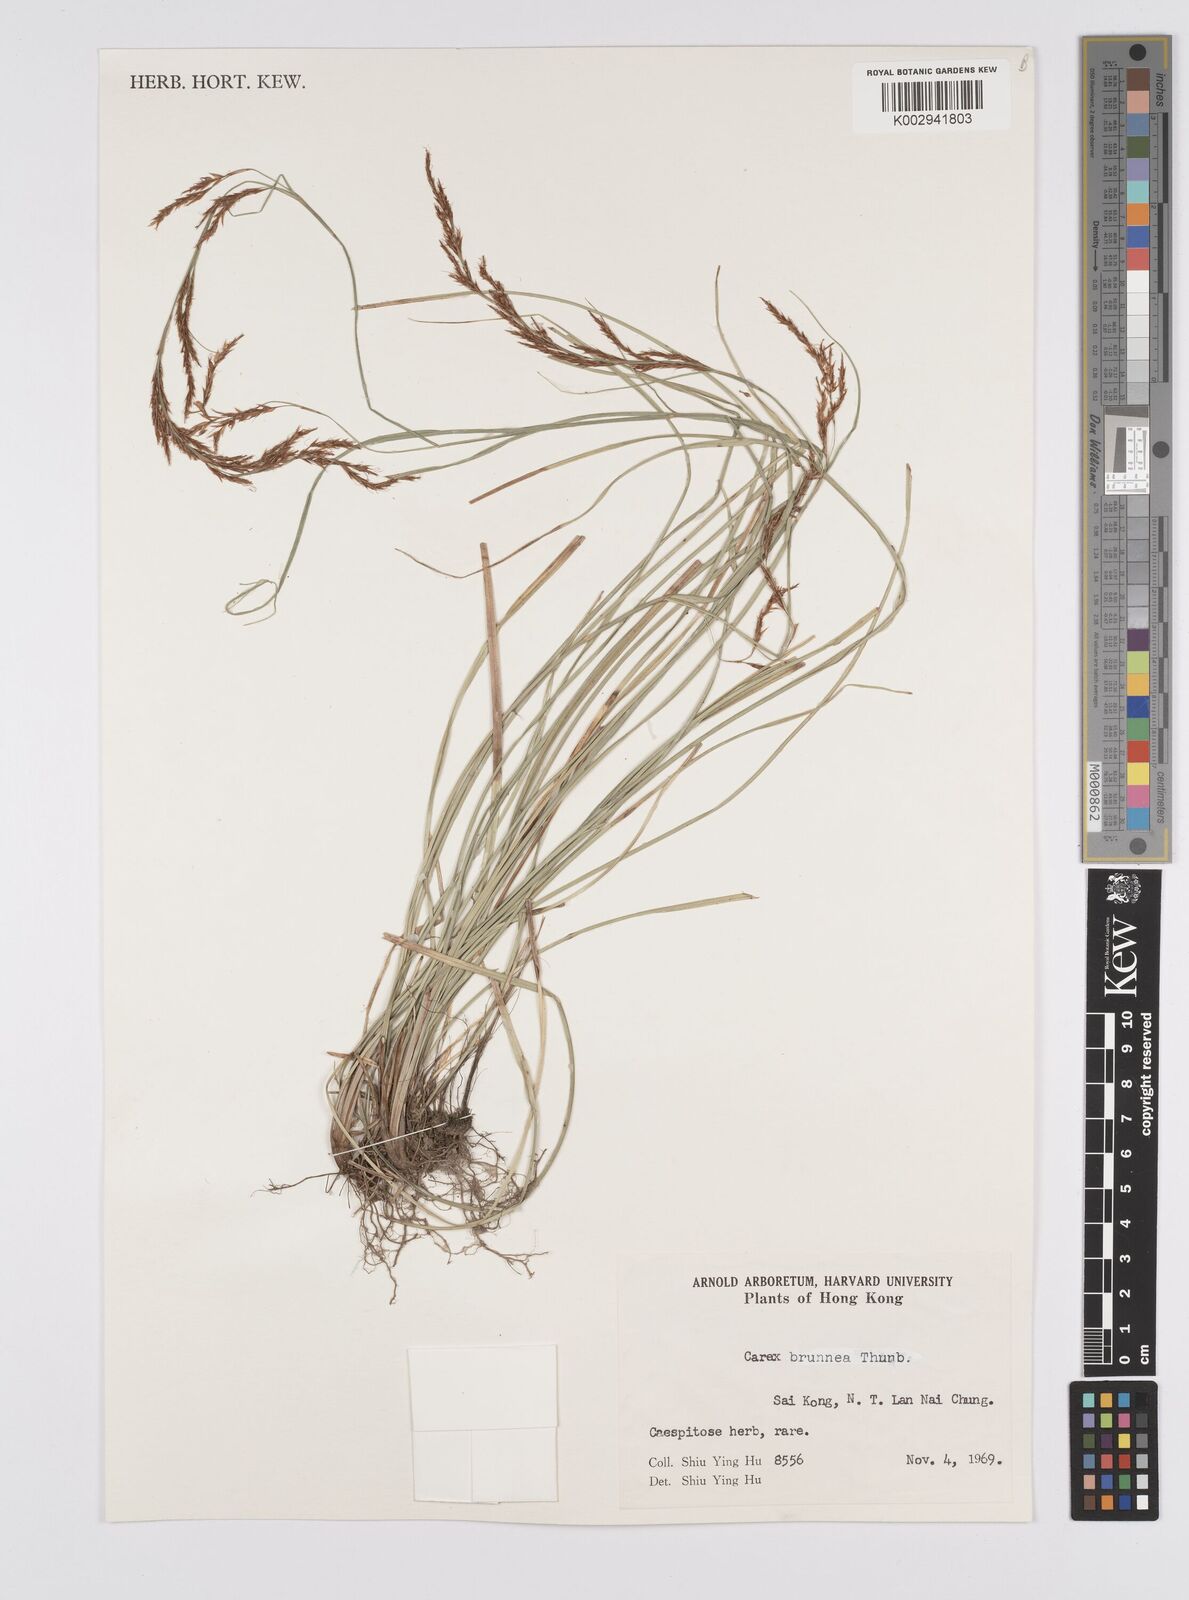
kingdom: Plantae
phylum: Tracheophyta
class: Liliopsida
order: Poales
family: Cyperaceae
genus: Carex
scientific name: Carex brunnea
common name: Greater brown sedge
